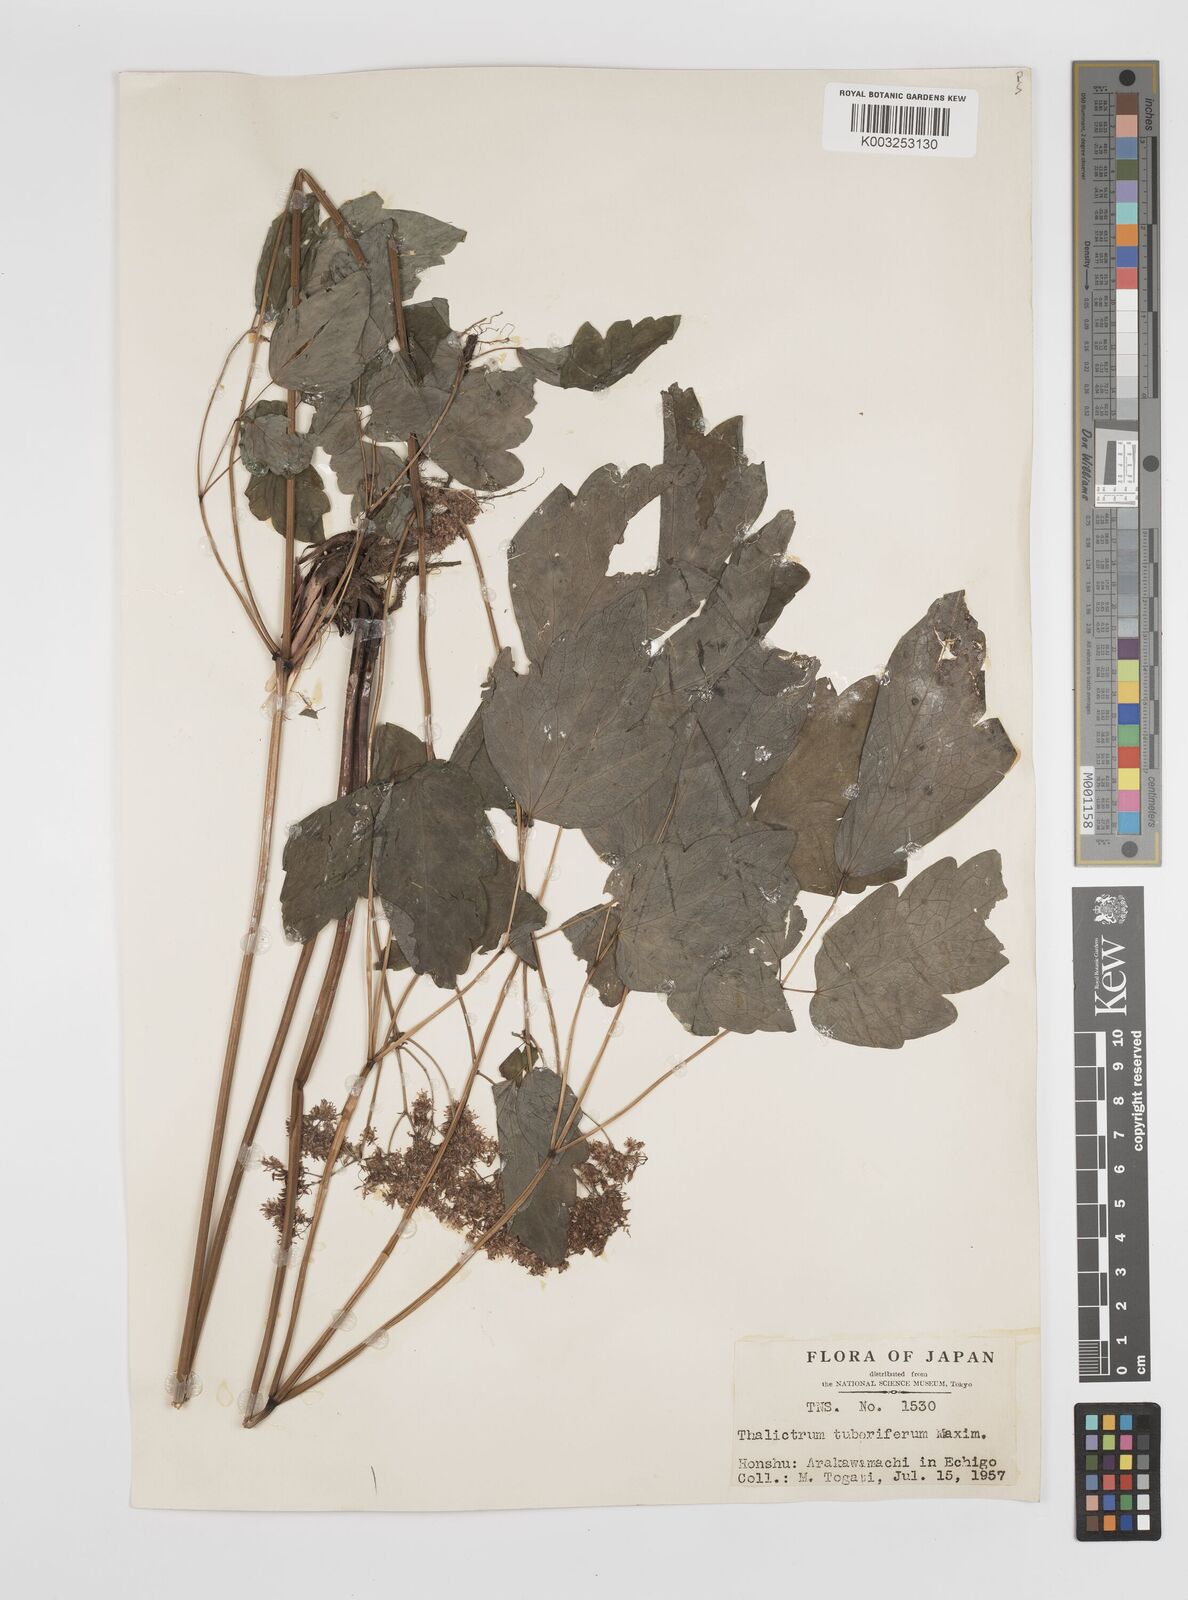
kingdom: Plantae
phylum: Tracheophyta
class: Magnoliopsida
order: Ranunculales
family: Ranunculaceae
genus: Thalictrum
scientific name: Thalictrum tuberiferum
